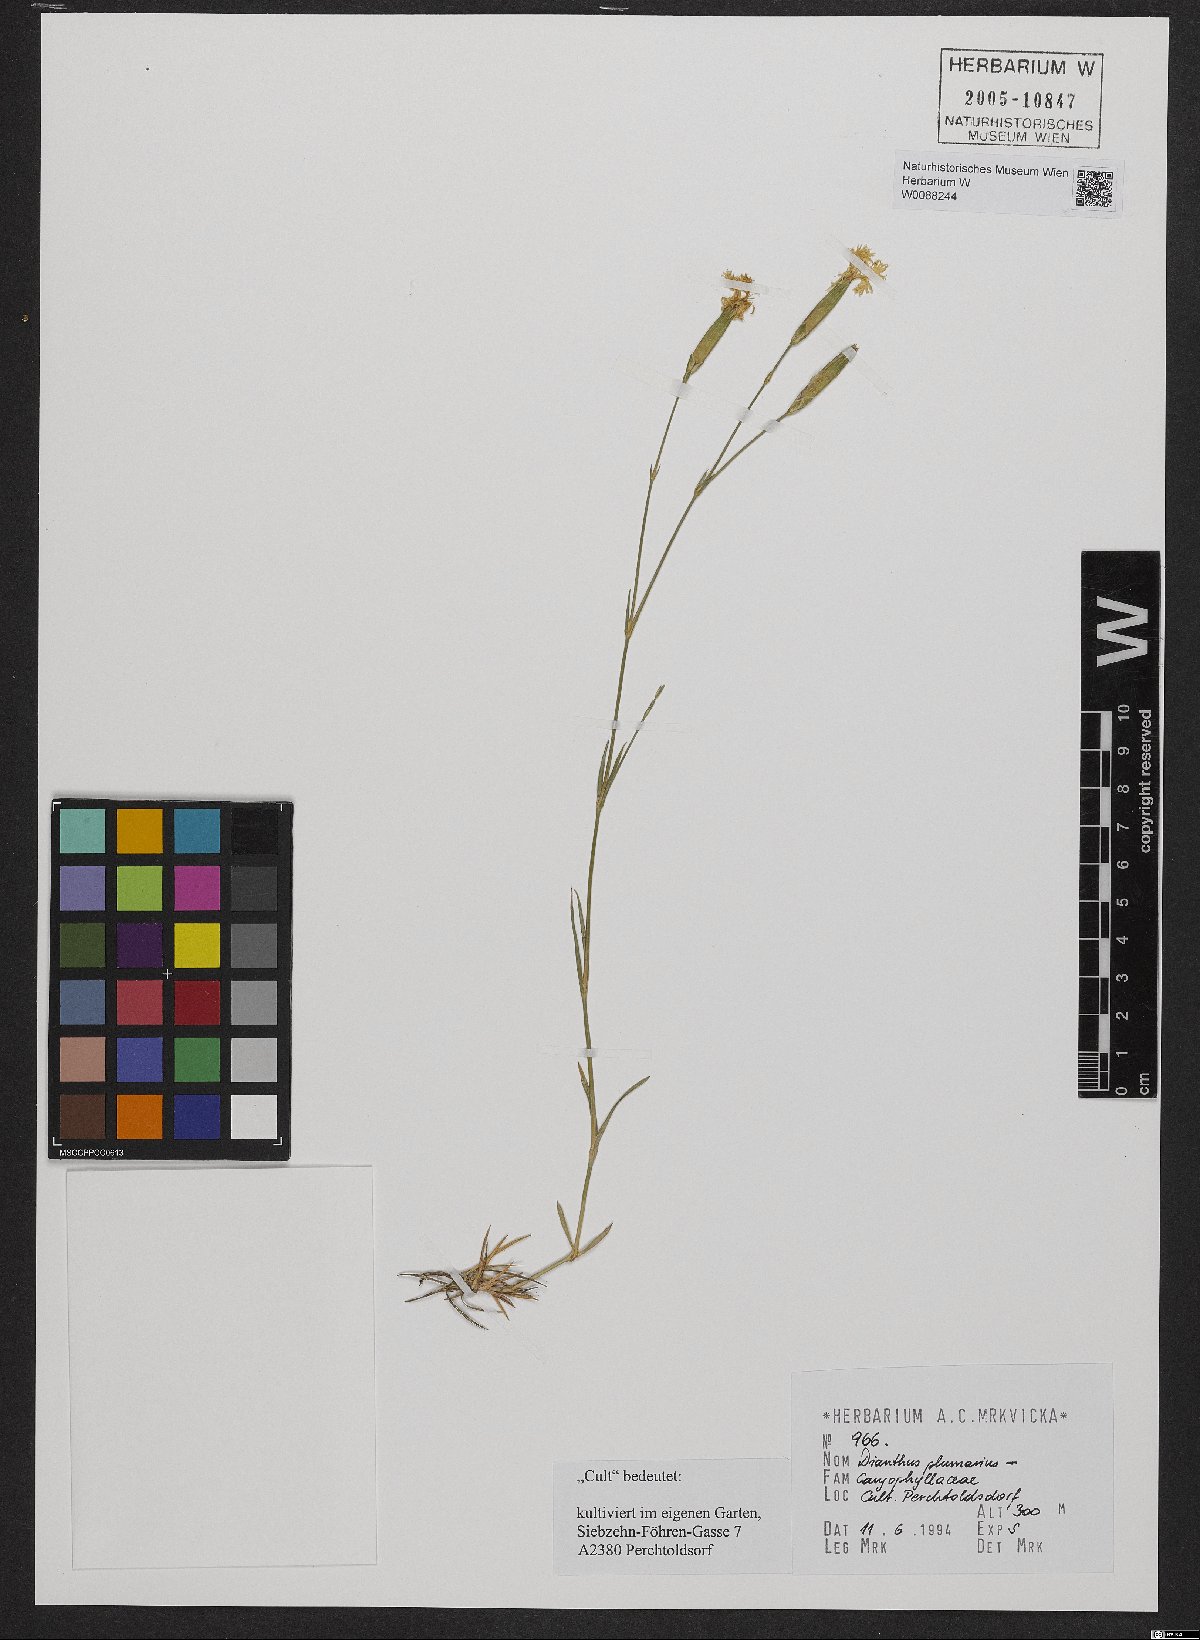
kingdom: Plantae
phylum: Tracheophyta
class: Magnoliopsida
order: Caryophyllales
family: Caryophyllaceae
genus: Dianthus
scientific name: Dianthus plumarius
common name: Pink
